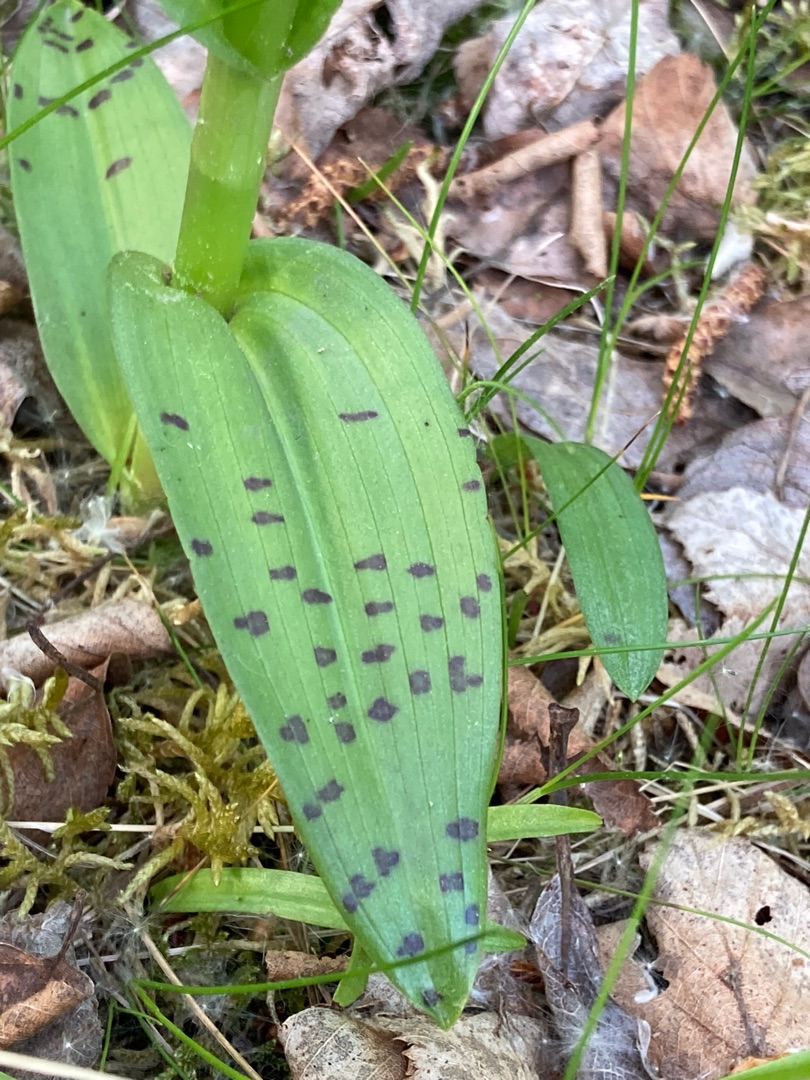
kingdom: Plantae
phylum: Tracheophyta
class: Liliopsida
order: Asparagales
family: Orchidaceae
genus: Dactylorhiza
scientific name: Dactylorhiza majalis
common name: Maj-gøgeurt
